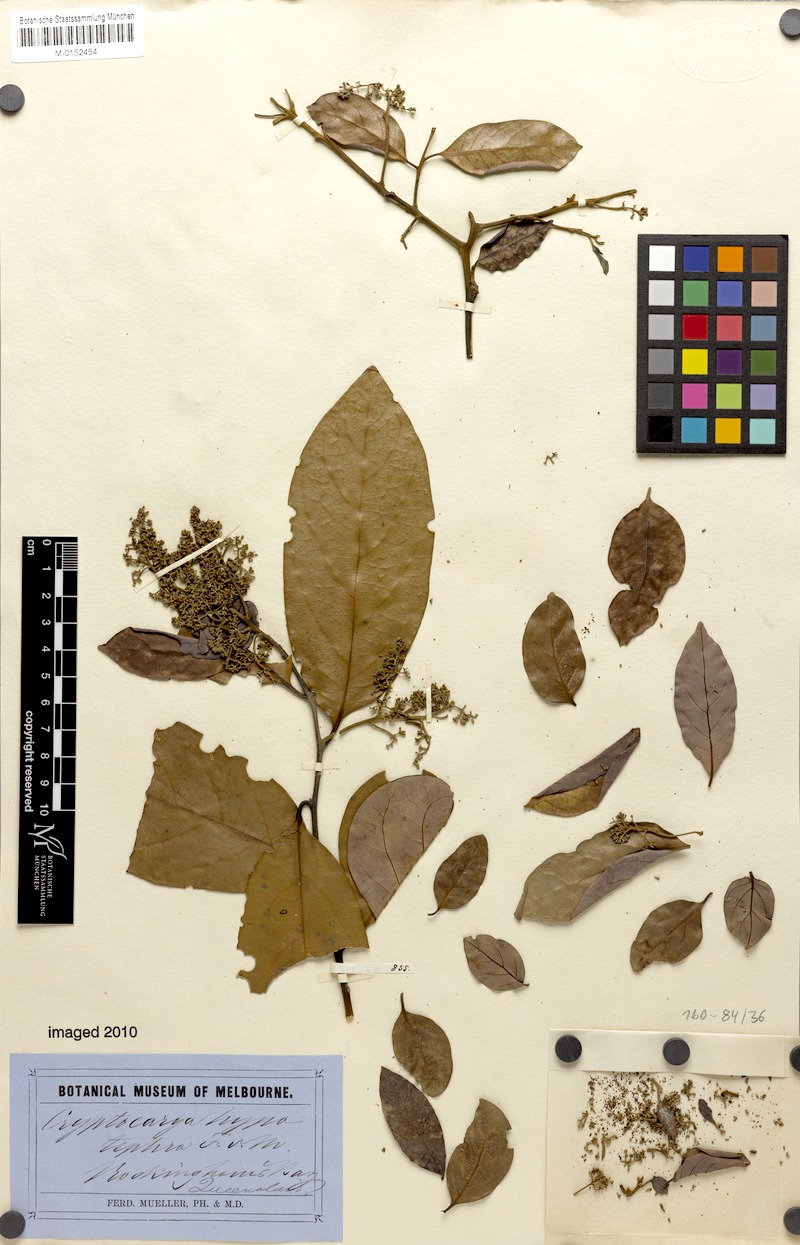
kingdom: Plantae
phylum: Tracheophyta
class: Magnoliopsida
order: Laurales
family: Lauraceae
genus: Cryptocarya
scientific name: Cryptocarya hypotephra
